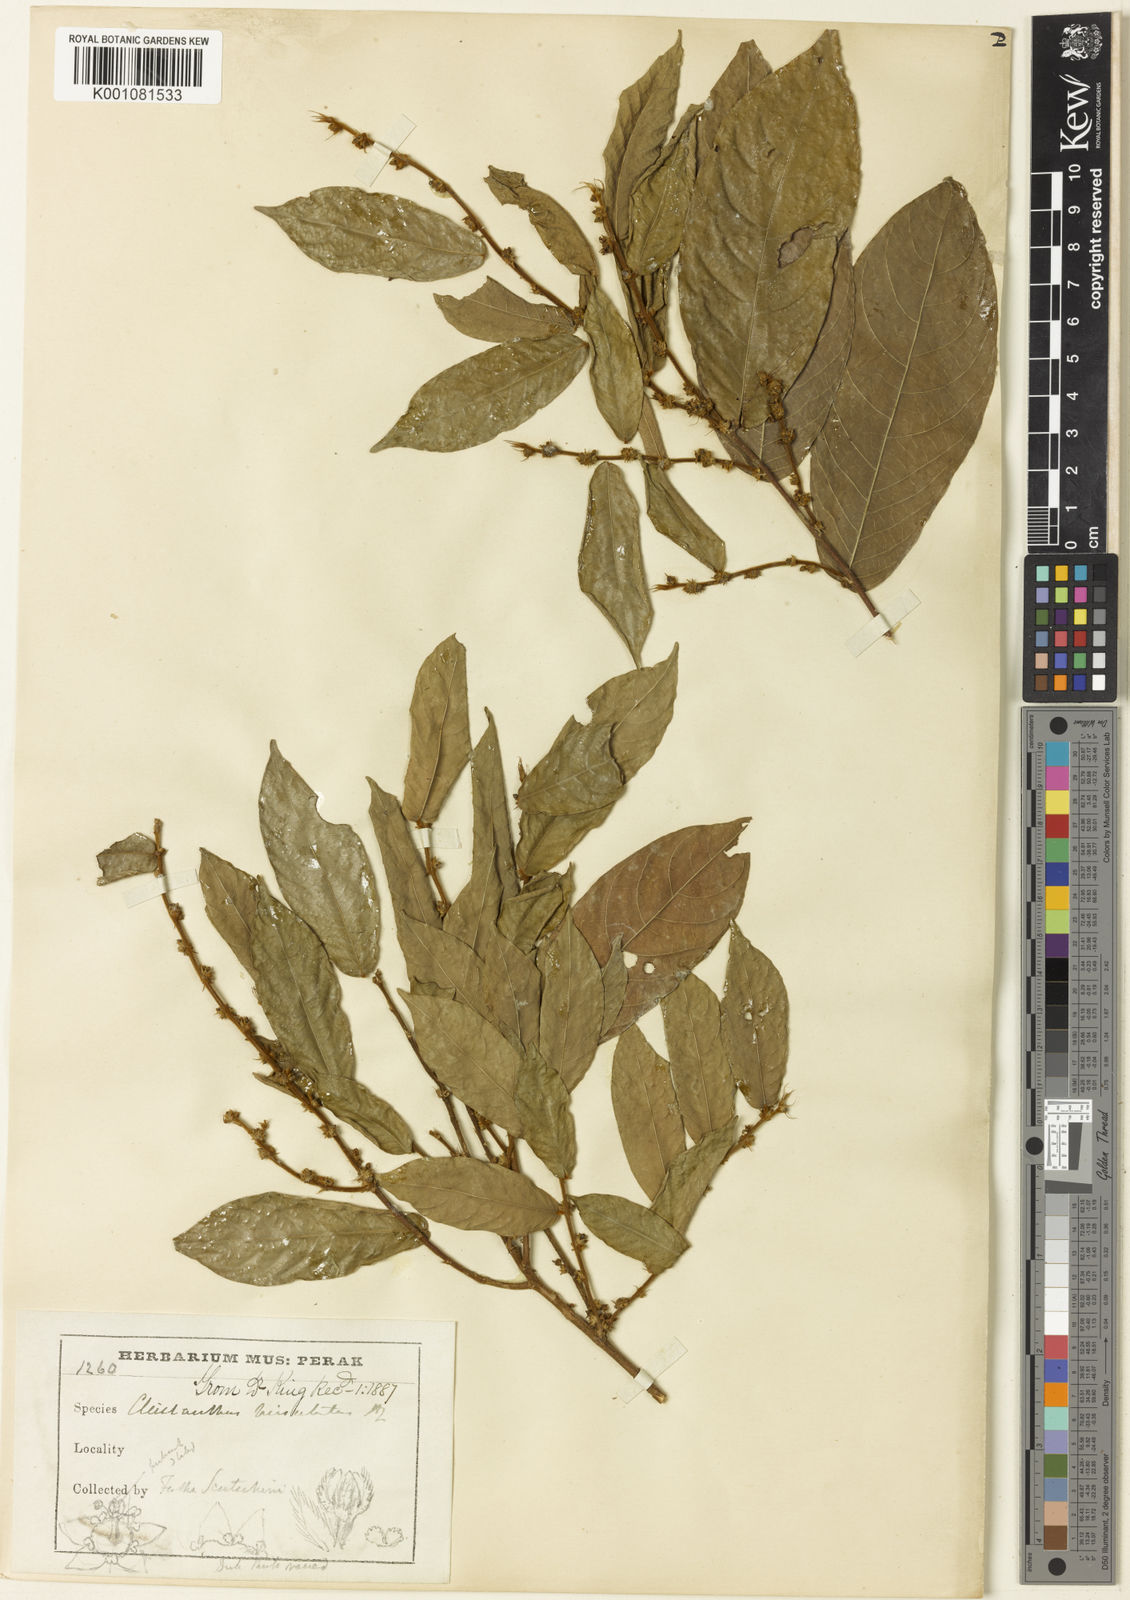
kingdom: Plantae
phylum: Tracheophyta
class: Magnoliopsida
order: Malpighiales
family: Phyllanthaceae
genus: Cleistanthus
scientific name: Cleistanthus hirsutulus
